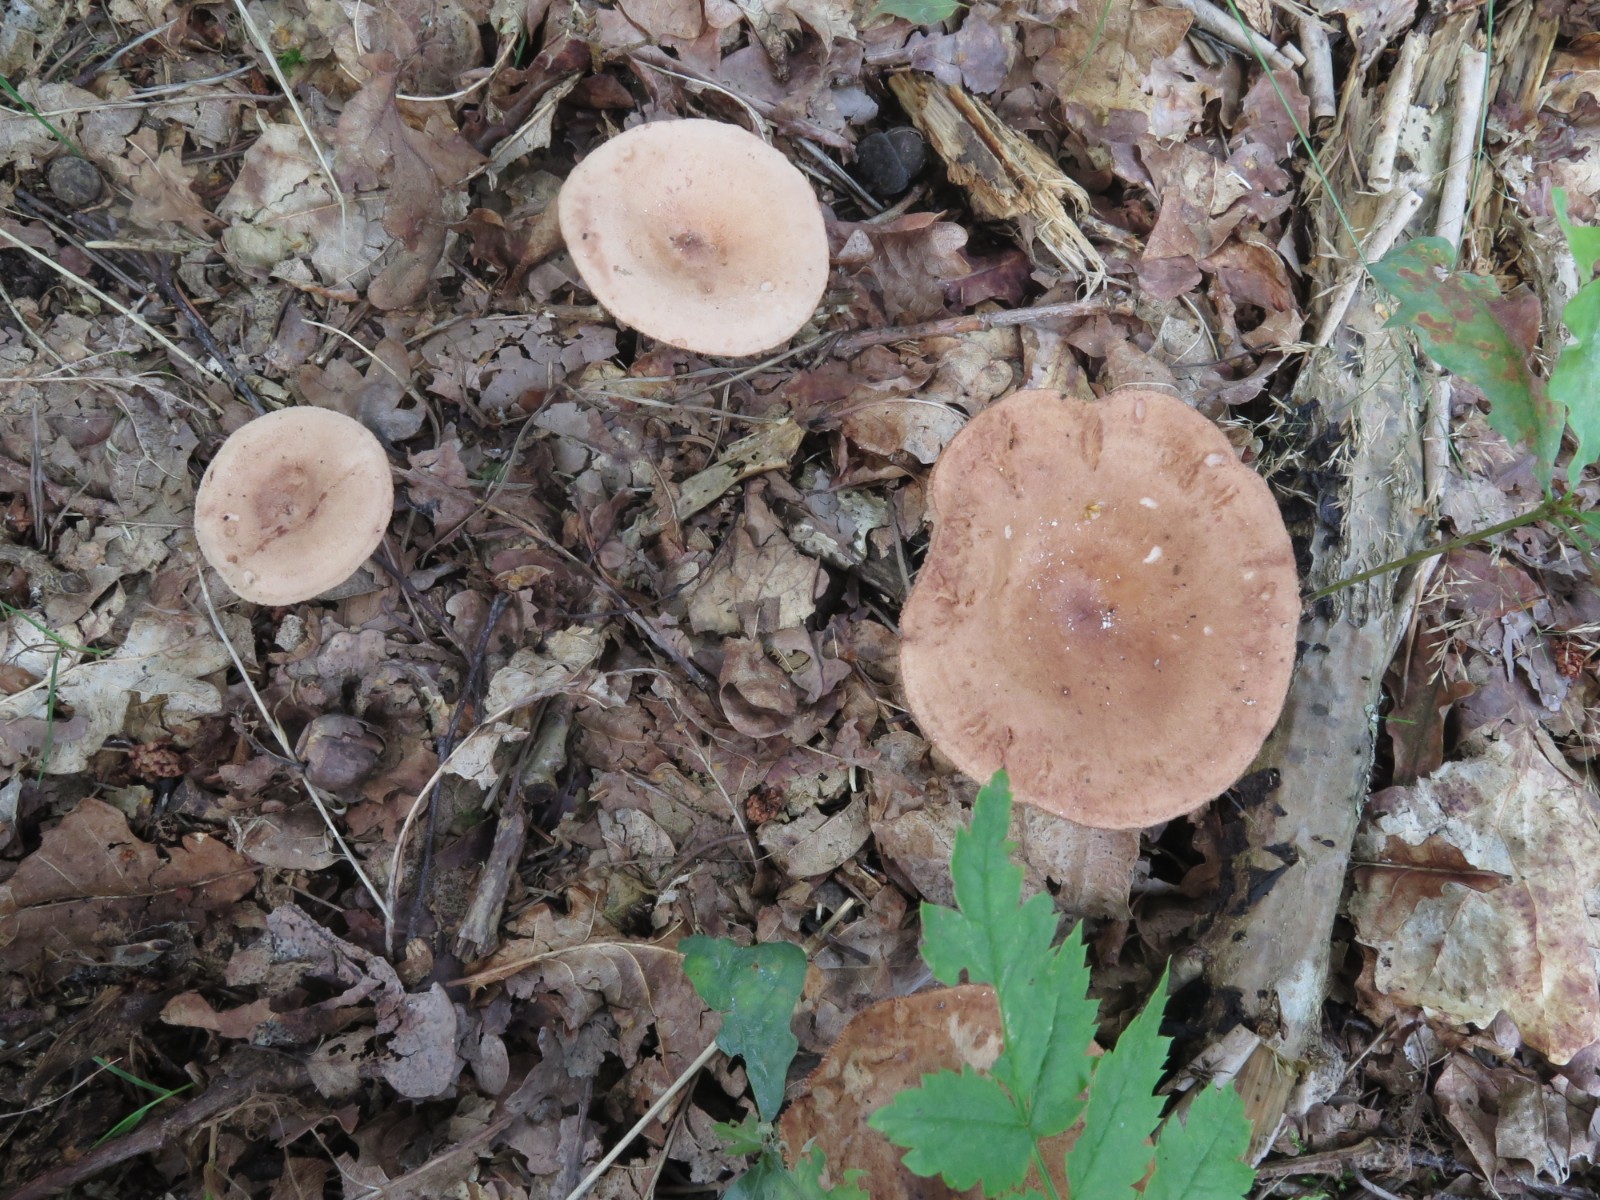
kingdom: Fungi
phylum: Basidiomycota
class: Agaricomycetes
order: Russulales
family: Russulaceae
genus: Lactarius
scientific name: Lactarius quietus
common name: ege-mælkehat
